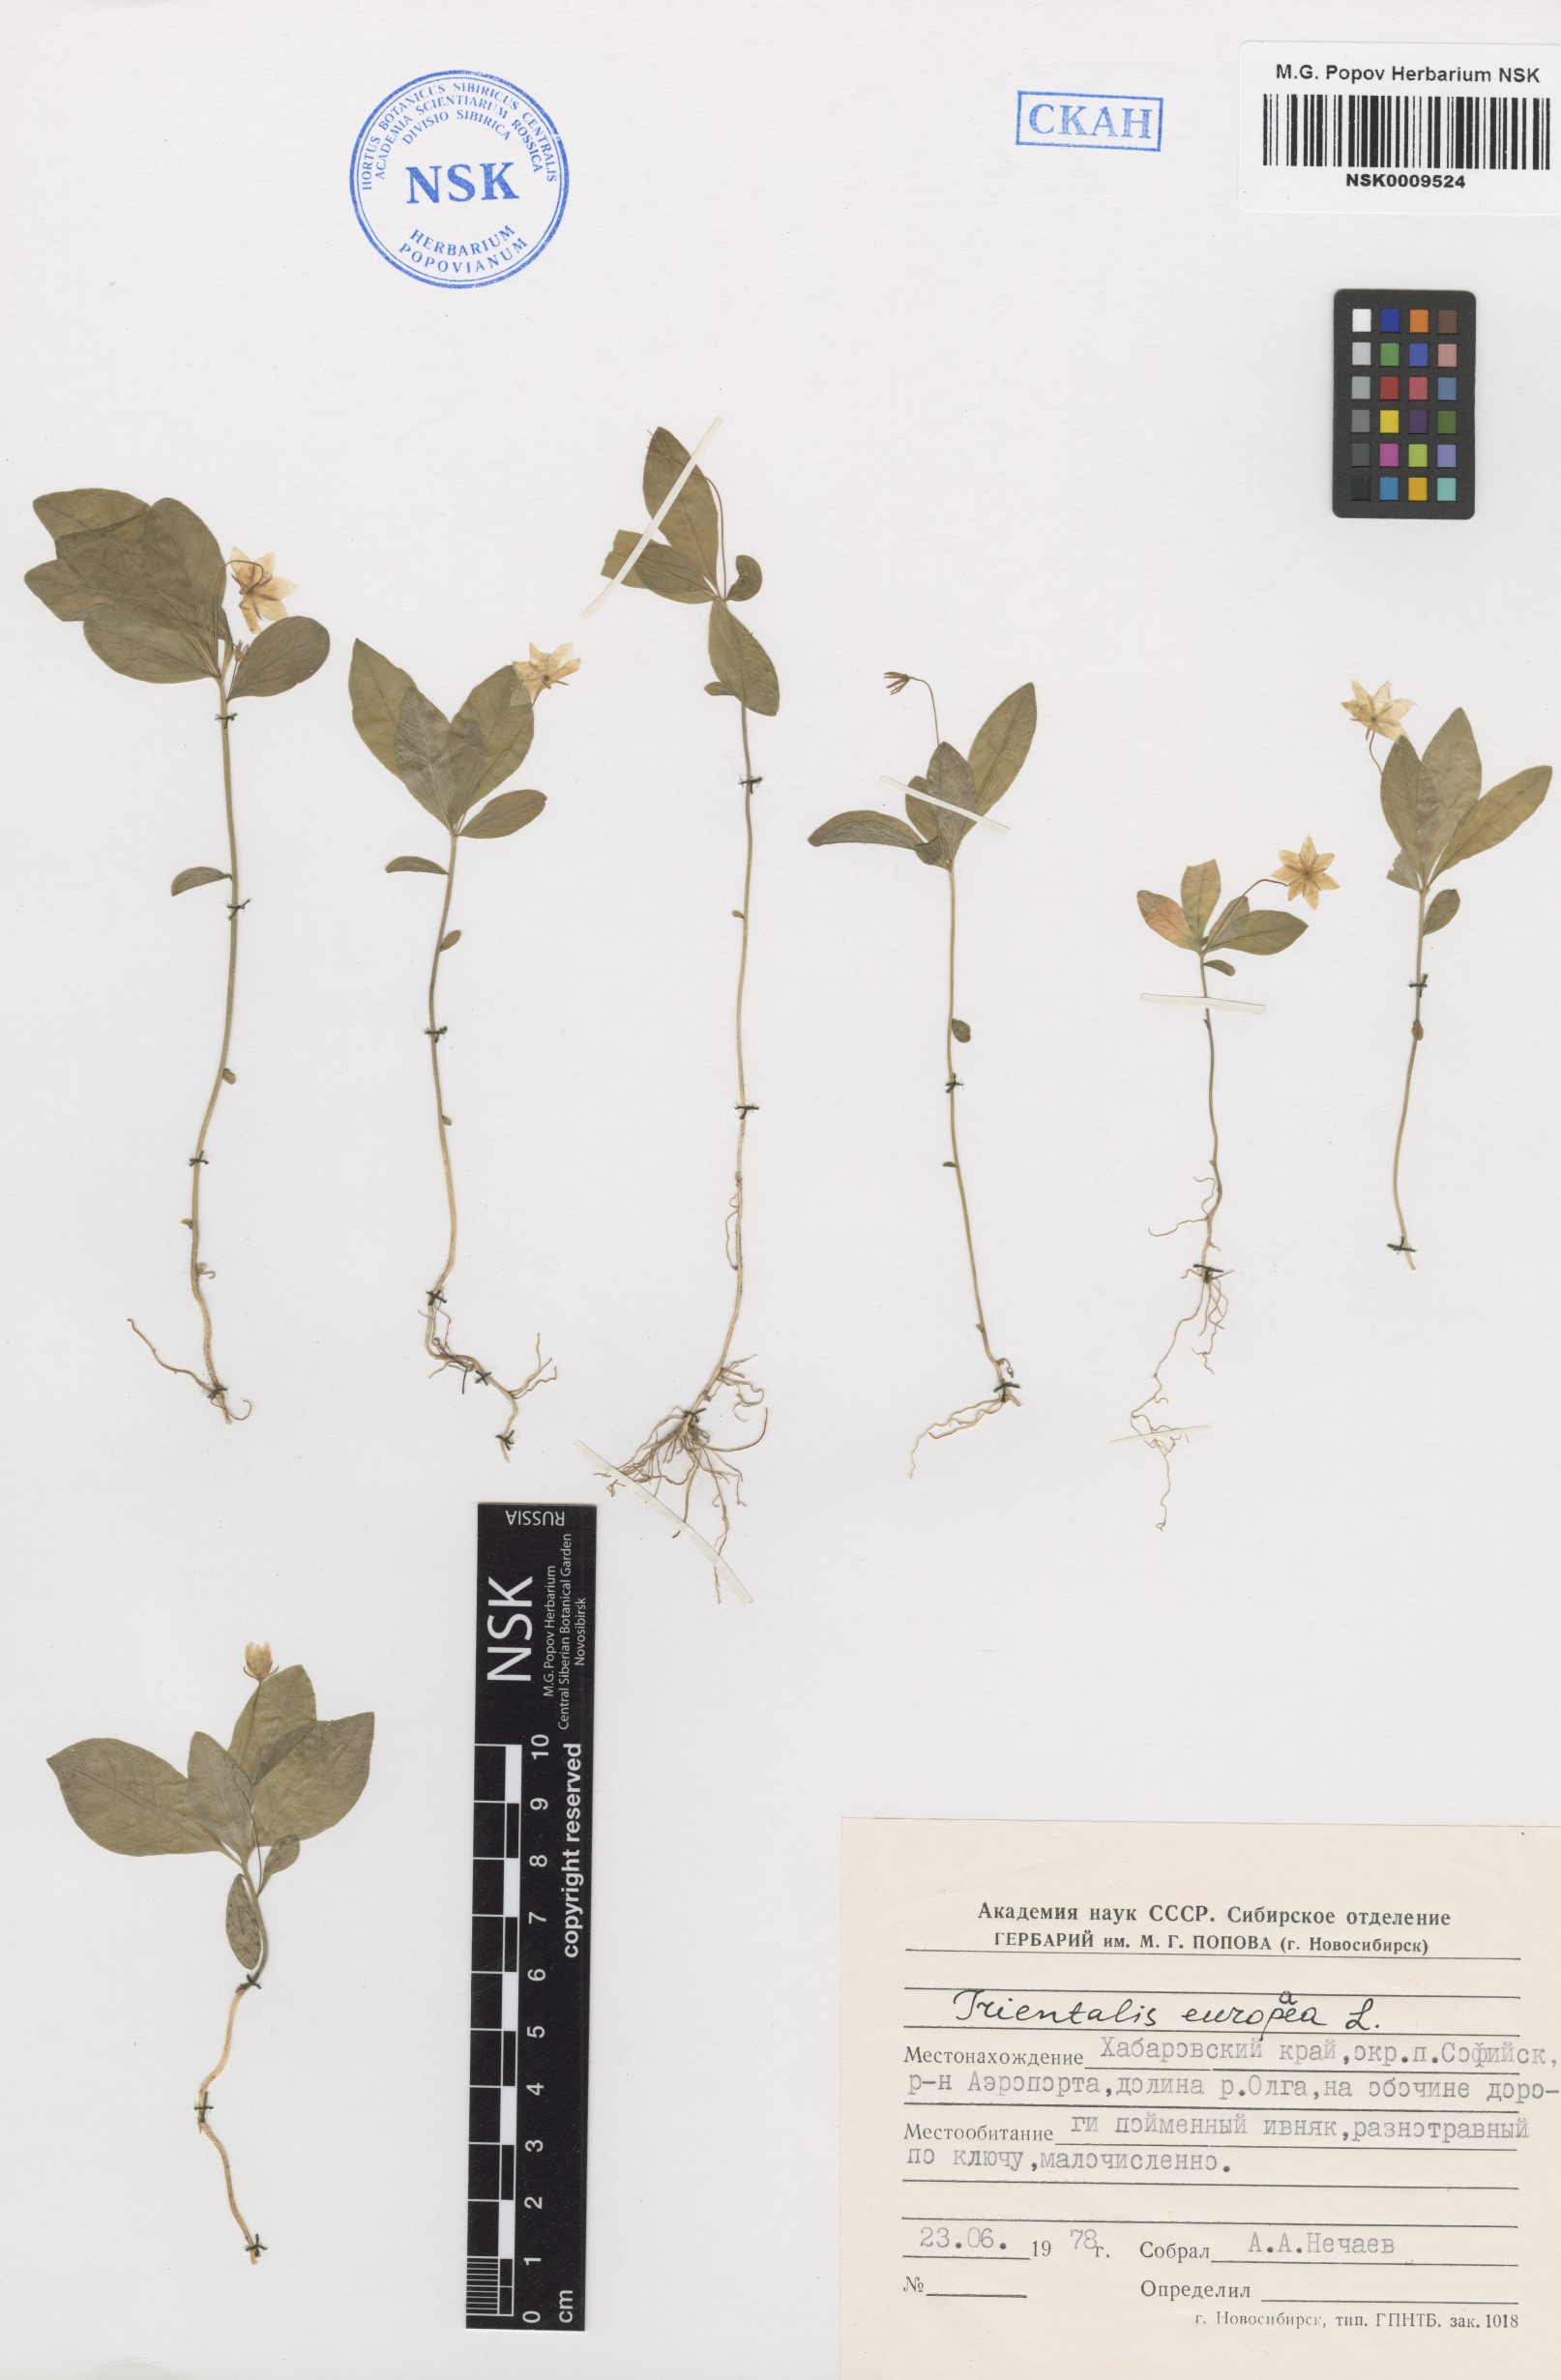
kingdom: Plantae
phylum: Tracheophyta
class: Magnoliopsida
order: Ericales
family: Primulaceae
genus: Lysimachia
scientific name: Lysimachia europaea
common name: Arctic starflower
